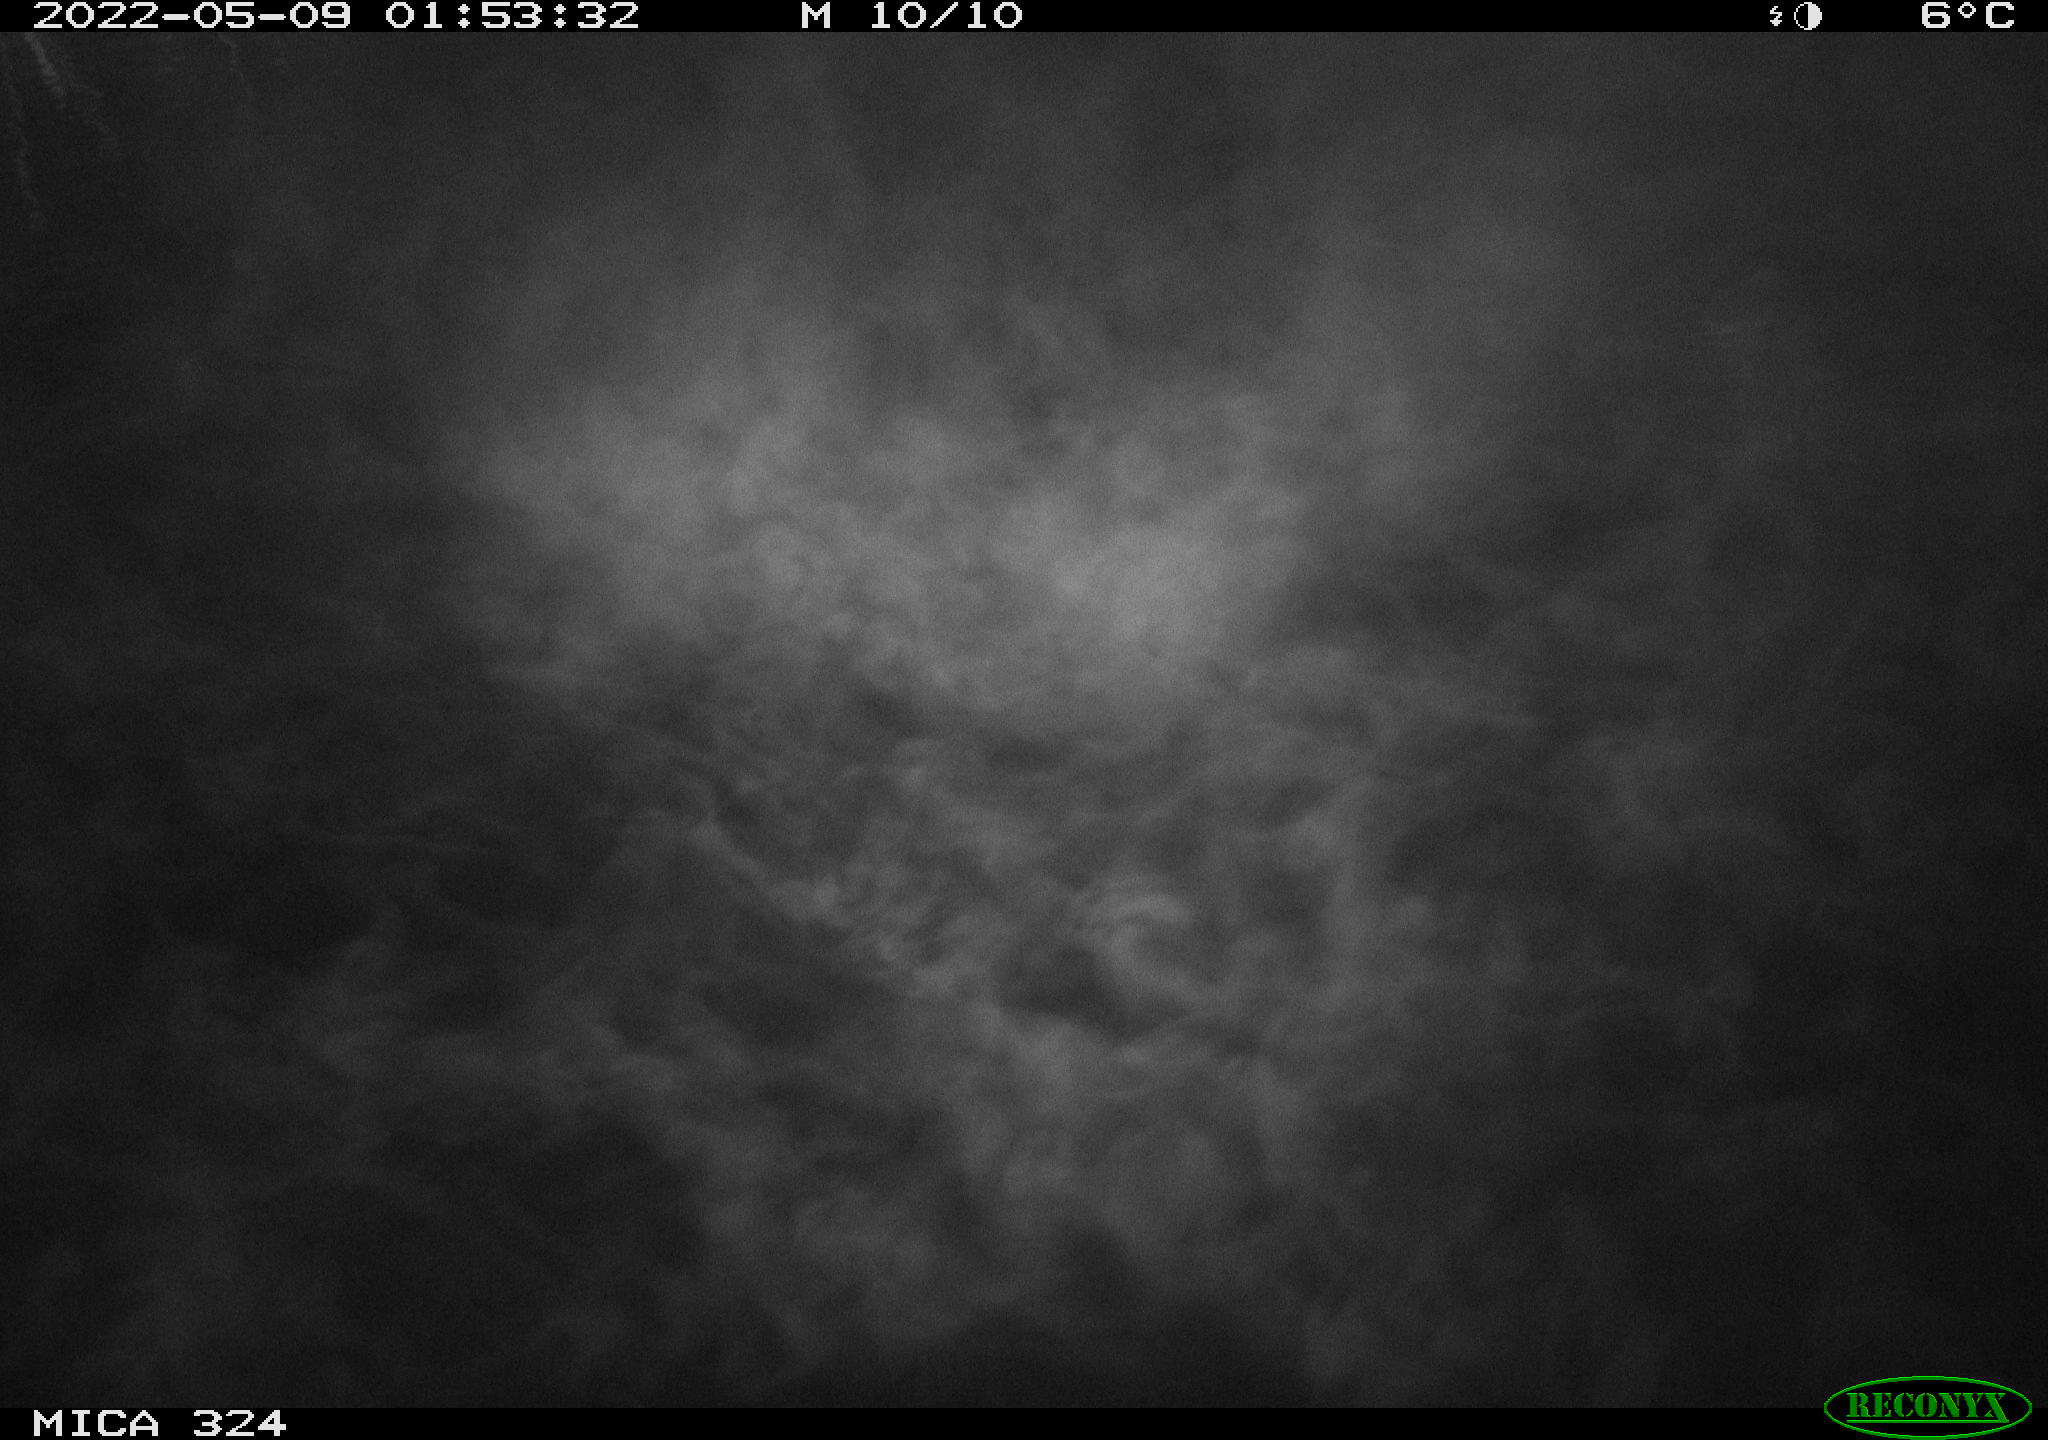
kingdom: Animalia
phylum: Chordata
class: Aves
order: Anseriformes
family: Anatidae
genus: Anas
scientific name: Anas platyrhynchos
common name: Mallard
